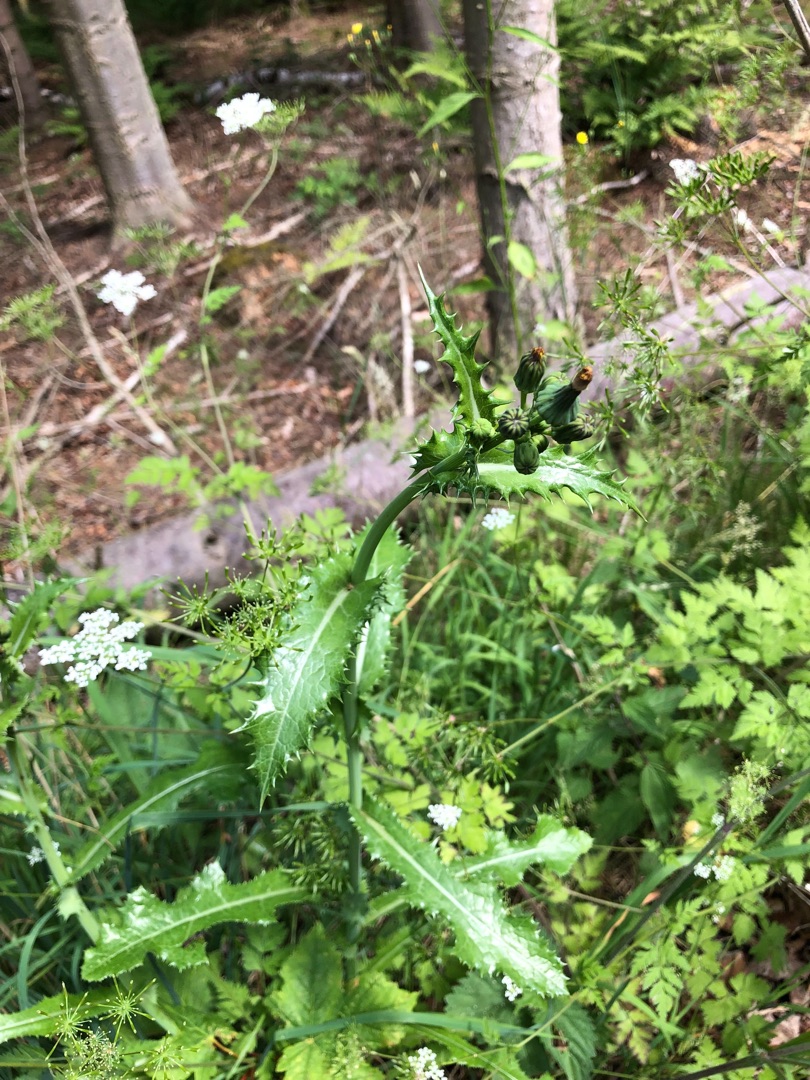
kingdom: Plantae
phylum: Tracheophyta
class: Magnoliopsida
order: Asterales
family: Asteraceae
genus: Sonchus
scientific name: Sonchus asper
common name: Ru svinemælk
